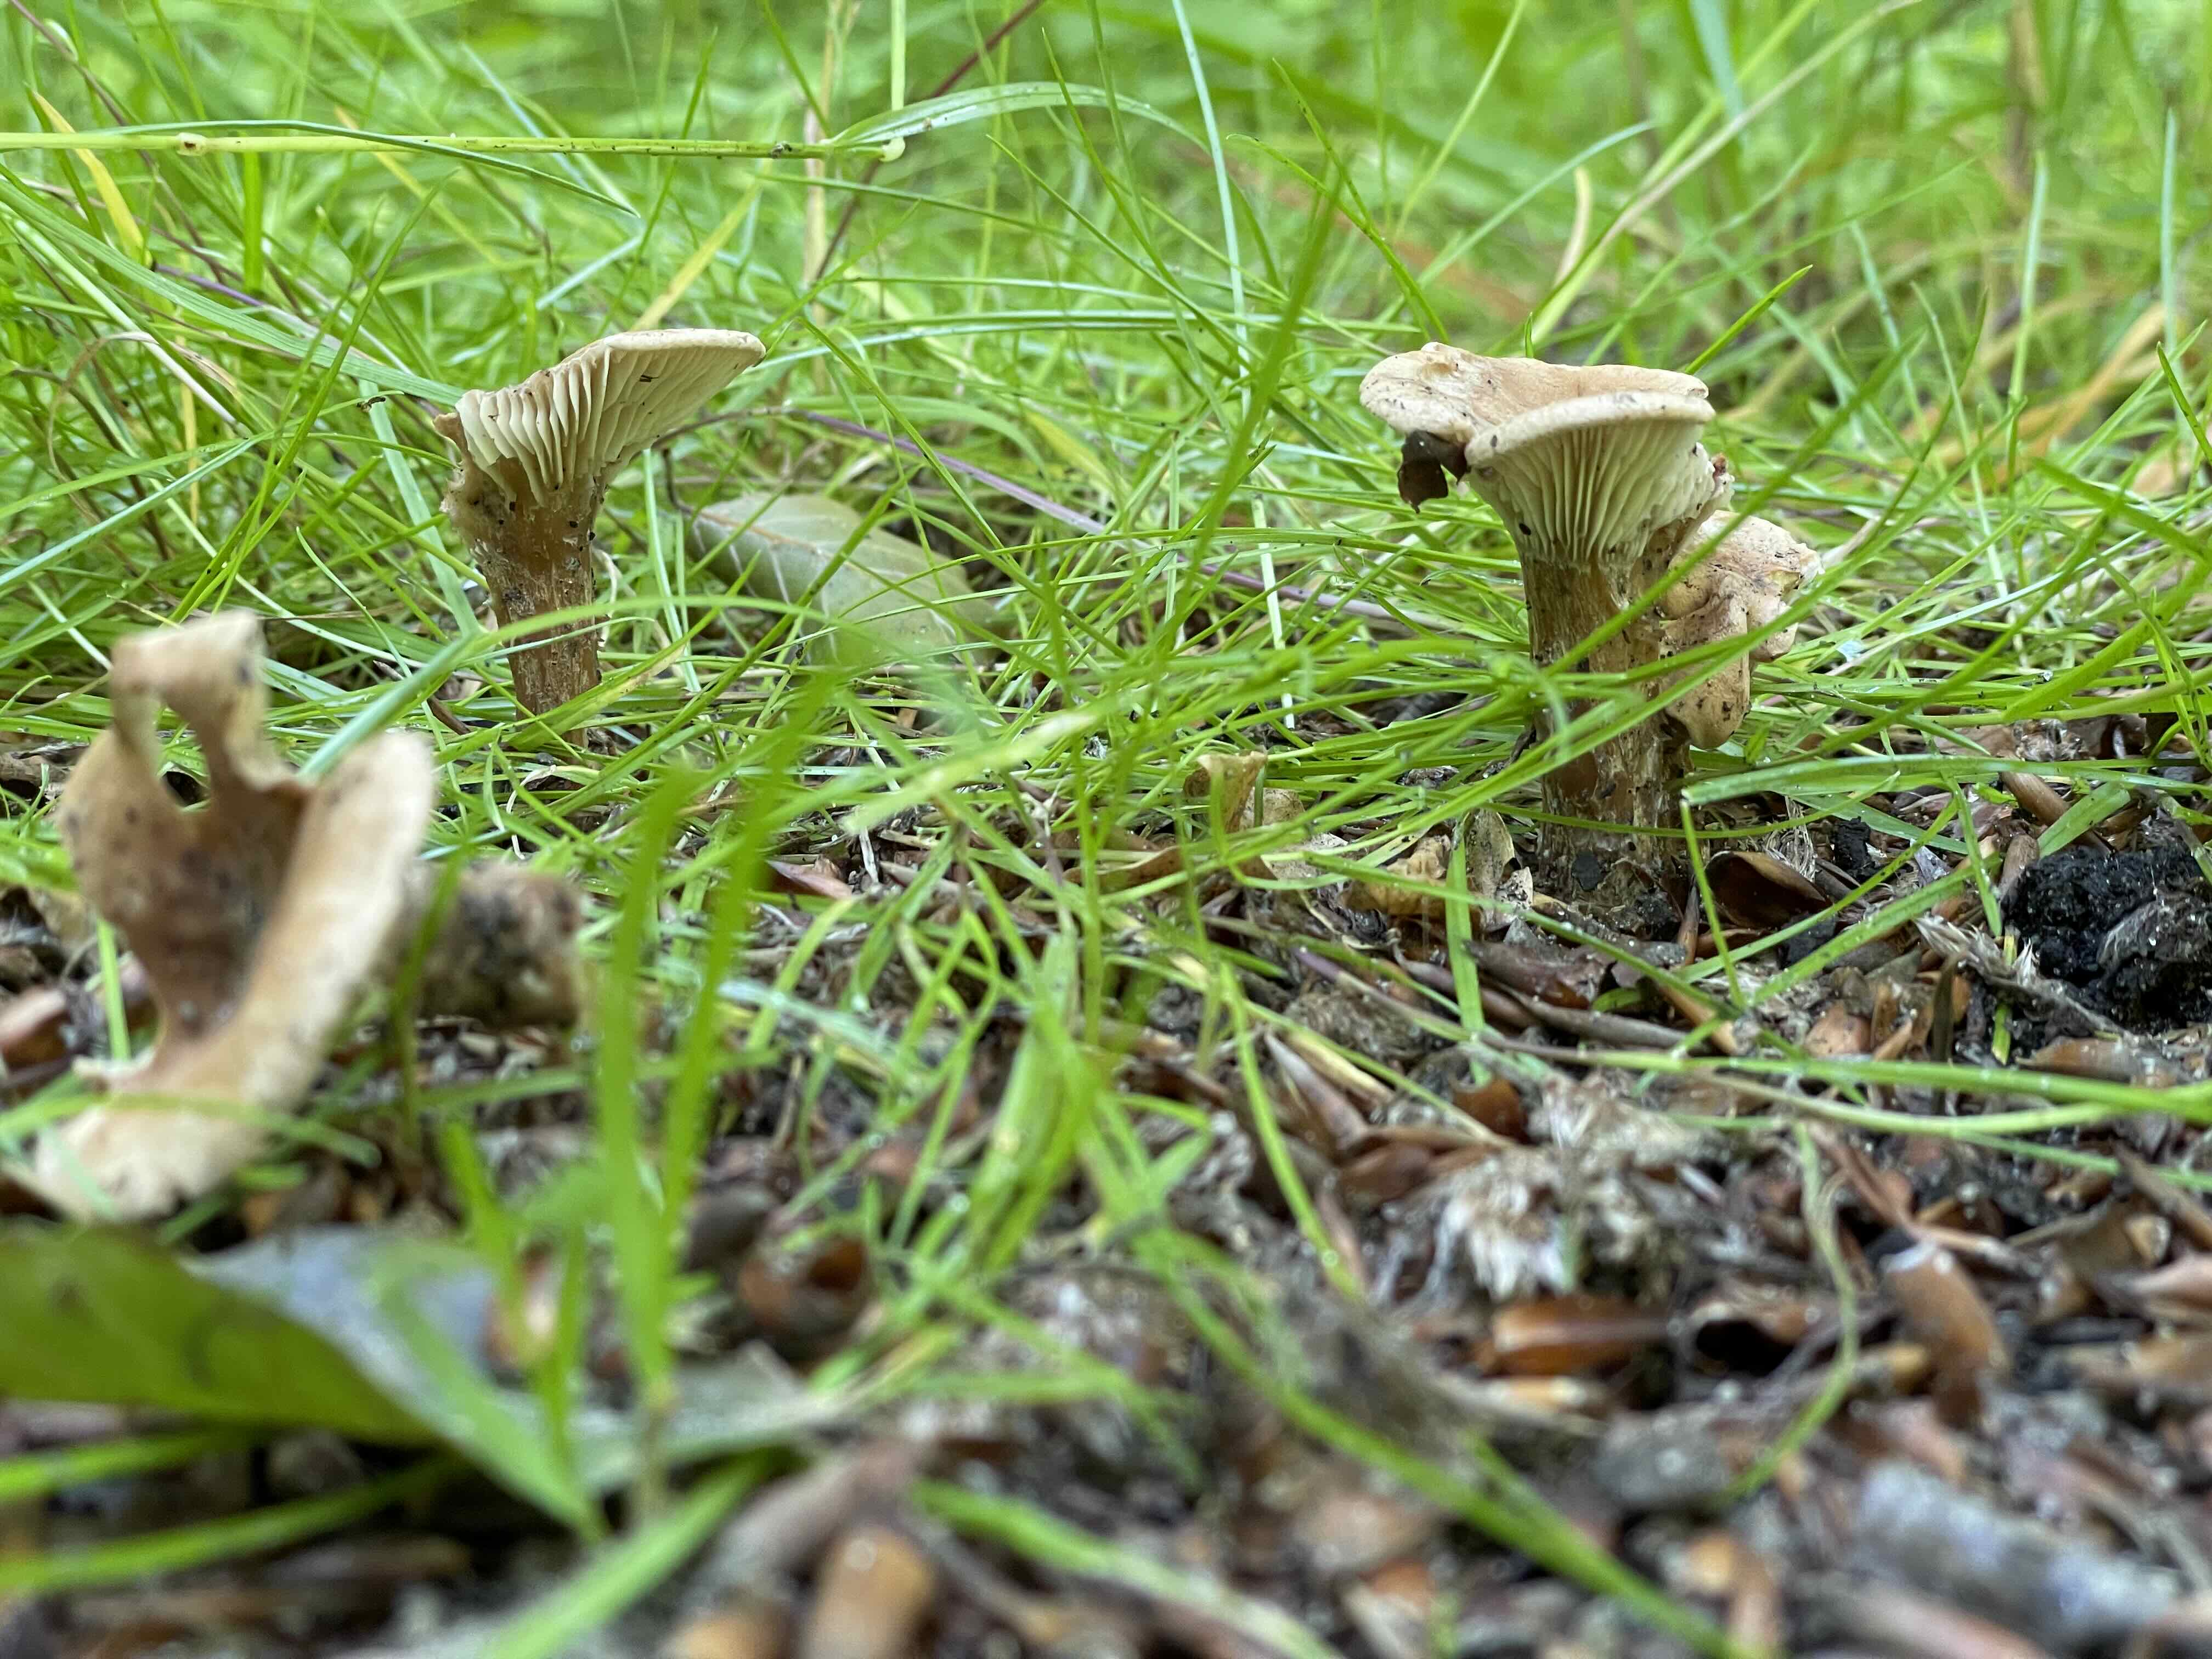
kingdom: Fungi
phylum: Basidiomycota
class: Agaricomycetes
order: Agaricales
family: Tricholomataceae
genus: Infundibulicybe
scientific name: Infundibulicybe
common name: tragthat
